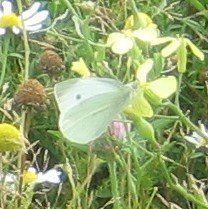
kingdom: Animalia
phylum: Arthropoda
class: Insecta
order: Lepidoptera
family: Pieridae
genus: Pieris
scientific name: Pieris rapae
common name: Cabbage White
